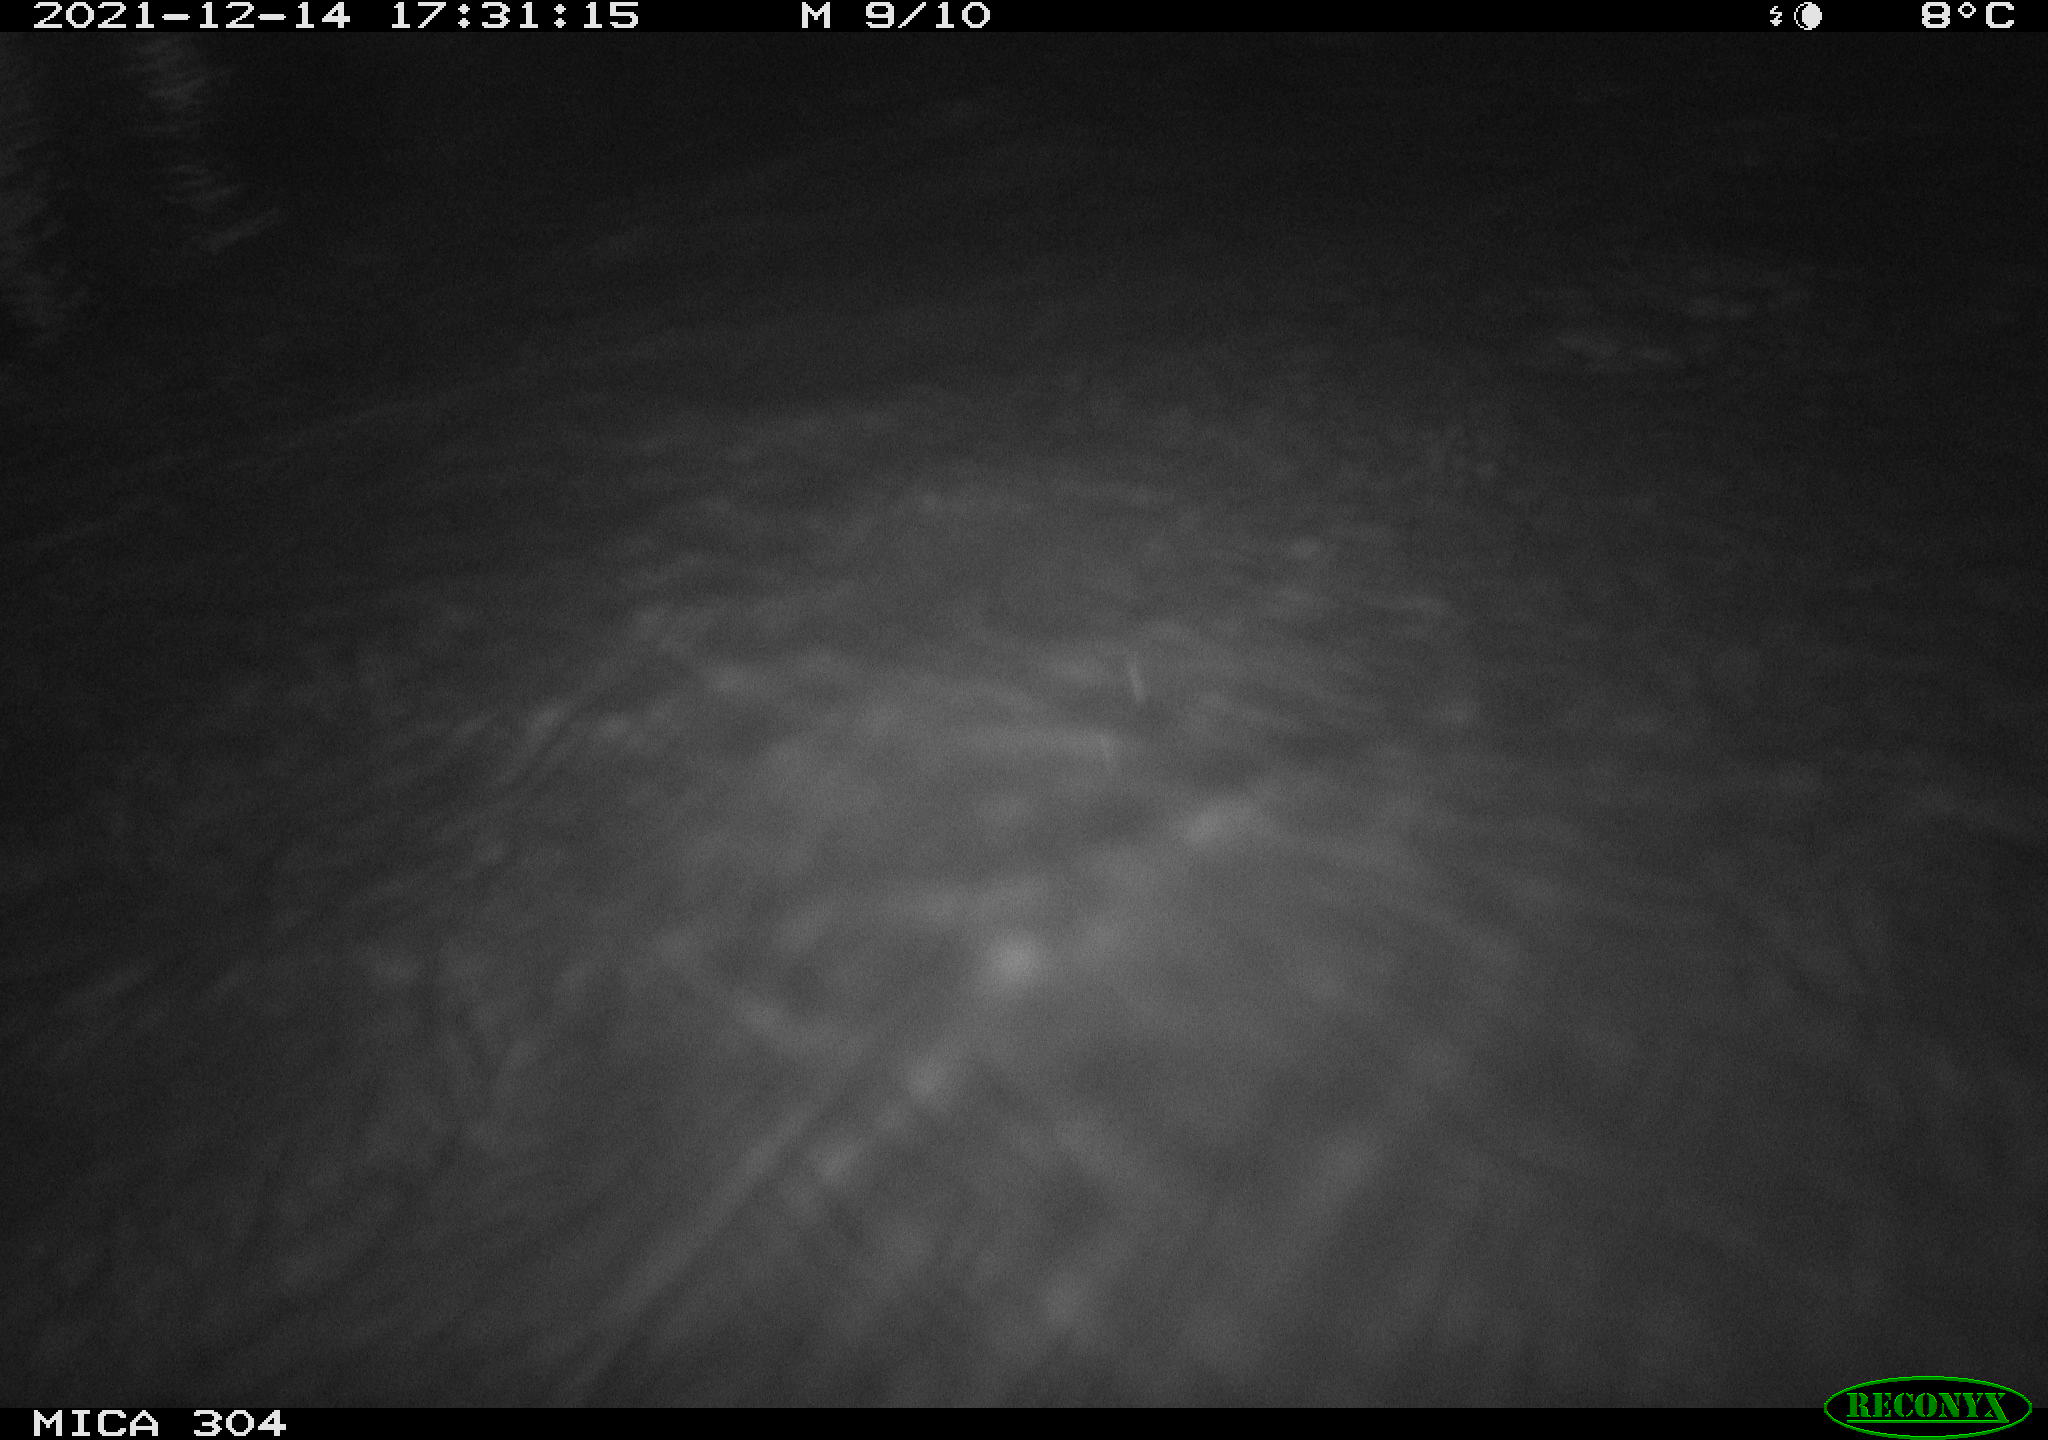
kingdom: Animalia
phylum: Chordata
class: Mammalia
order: Rodentia
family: Cricetidae
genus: Ondatra
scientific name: Ondatra zibethicus
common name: Muskrat
